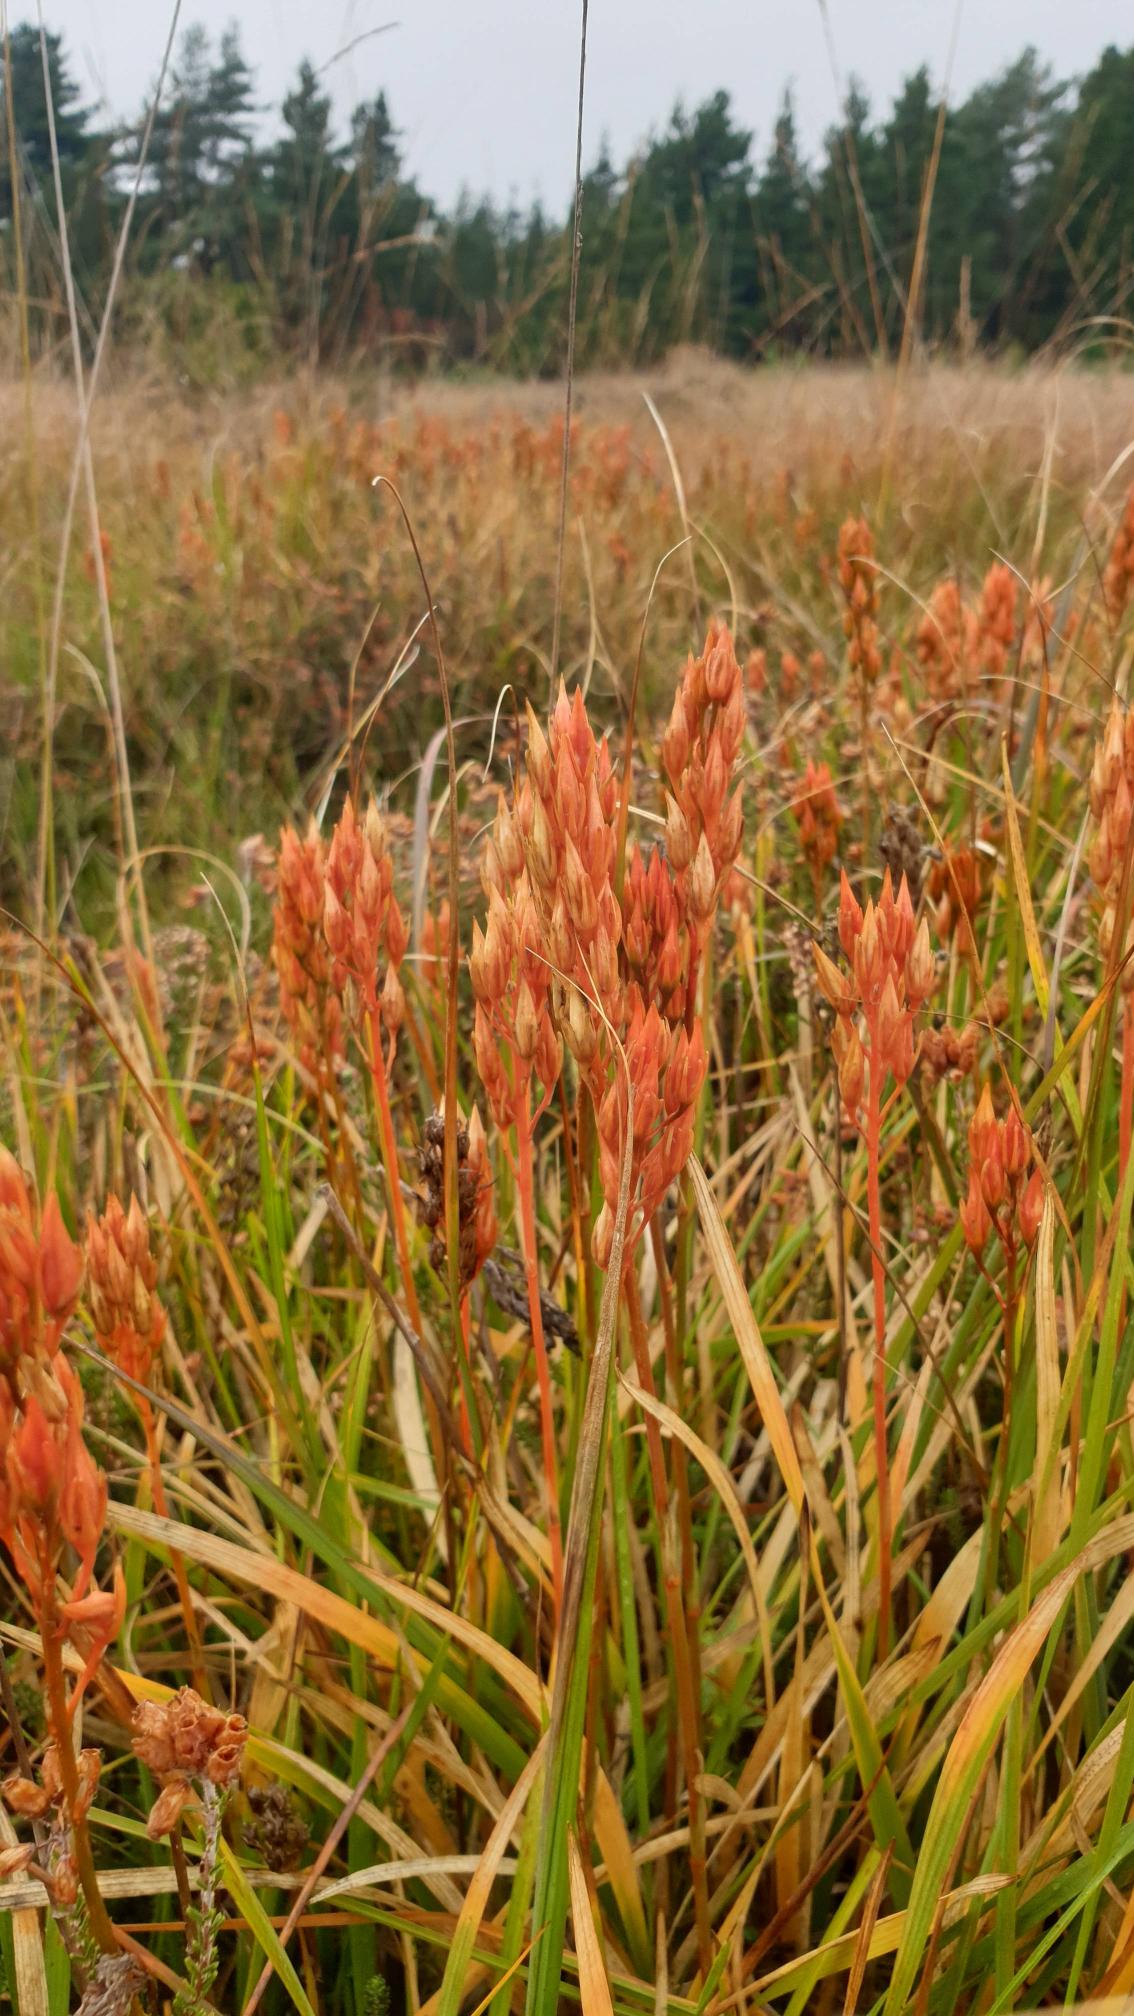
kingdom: Plantae
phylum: Tracheophyta
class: Liliopsida
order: Dioscoreales
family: Nartheciaceae
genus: Narthecium
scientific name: Narthecium ossifragum
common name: Benbræk
